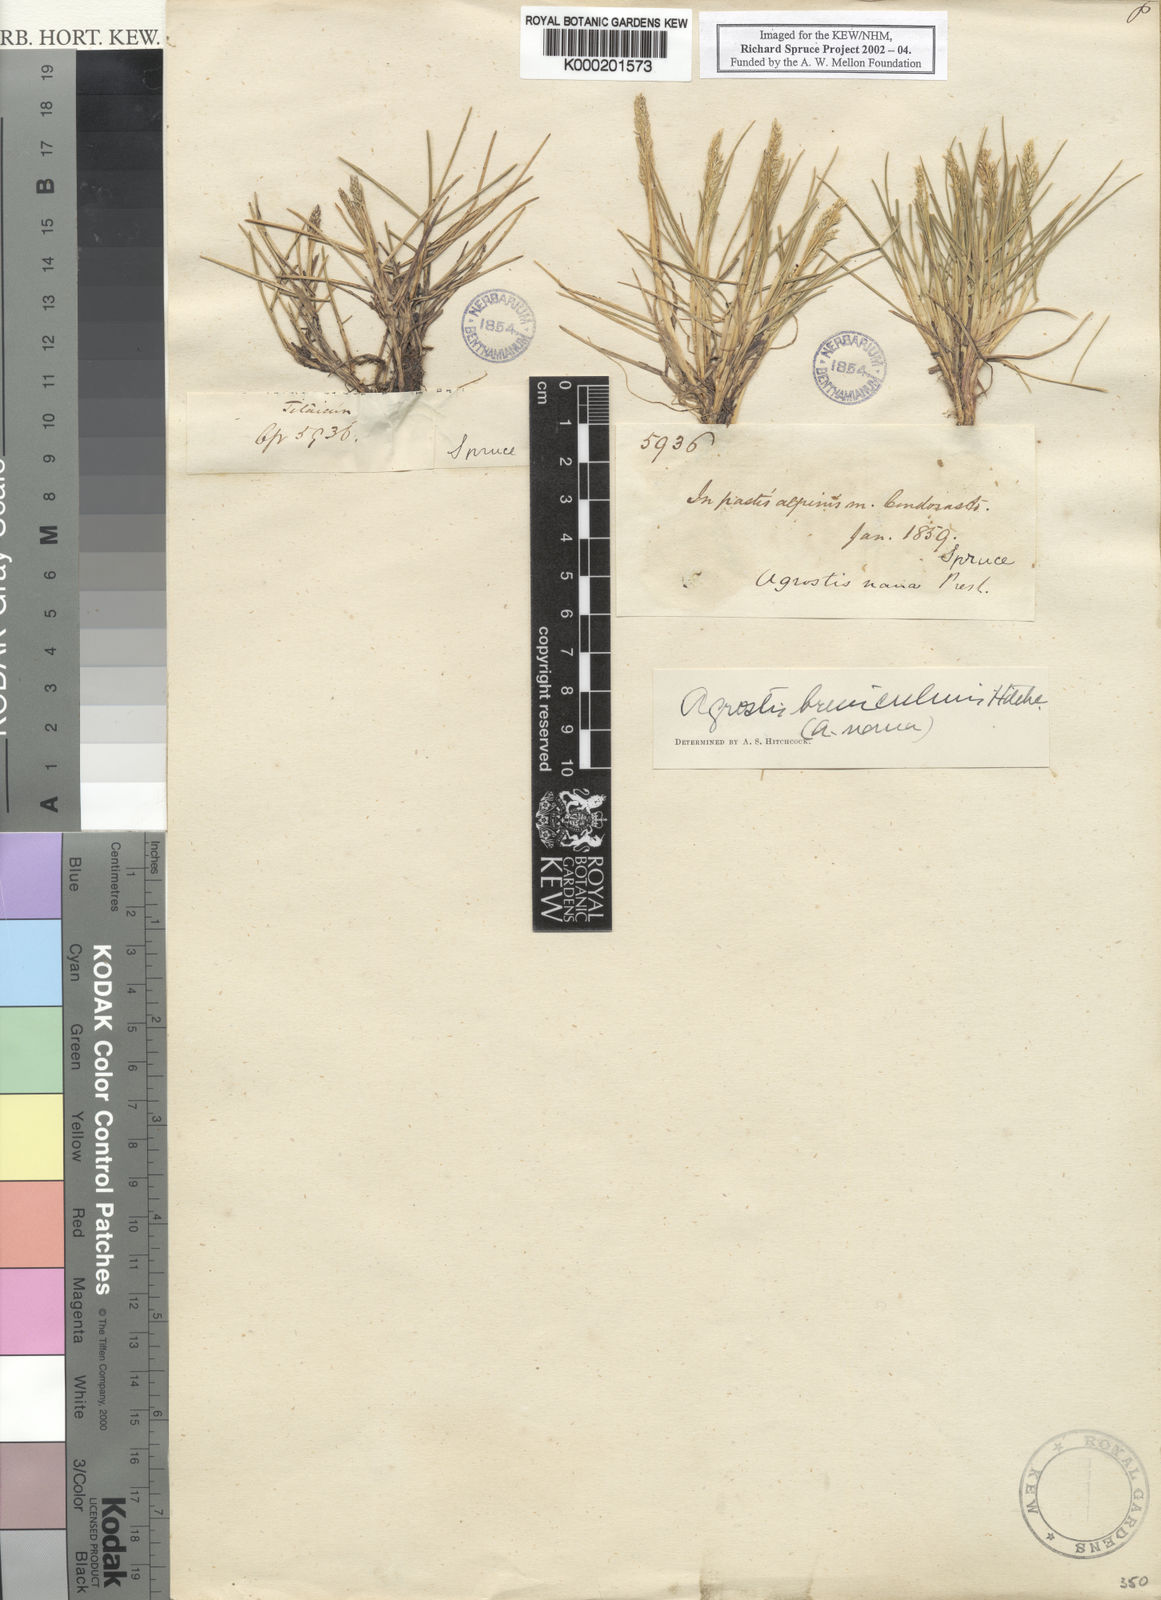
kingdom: Plantae
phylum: Tracheophyta
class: Liliopsida
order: Poales
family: Poaceae
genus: Agrostis
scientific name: Agrostis breviculmis
